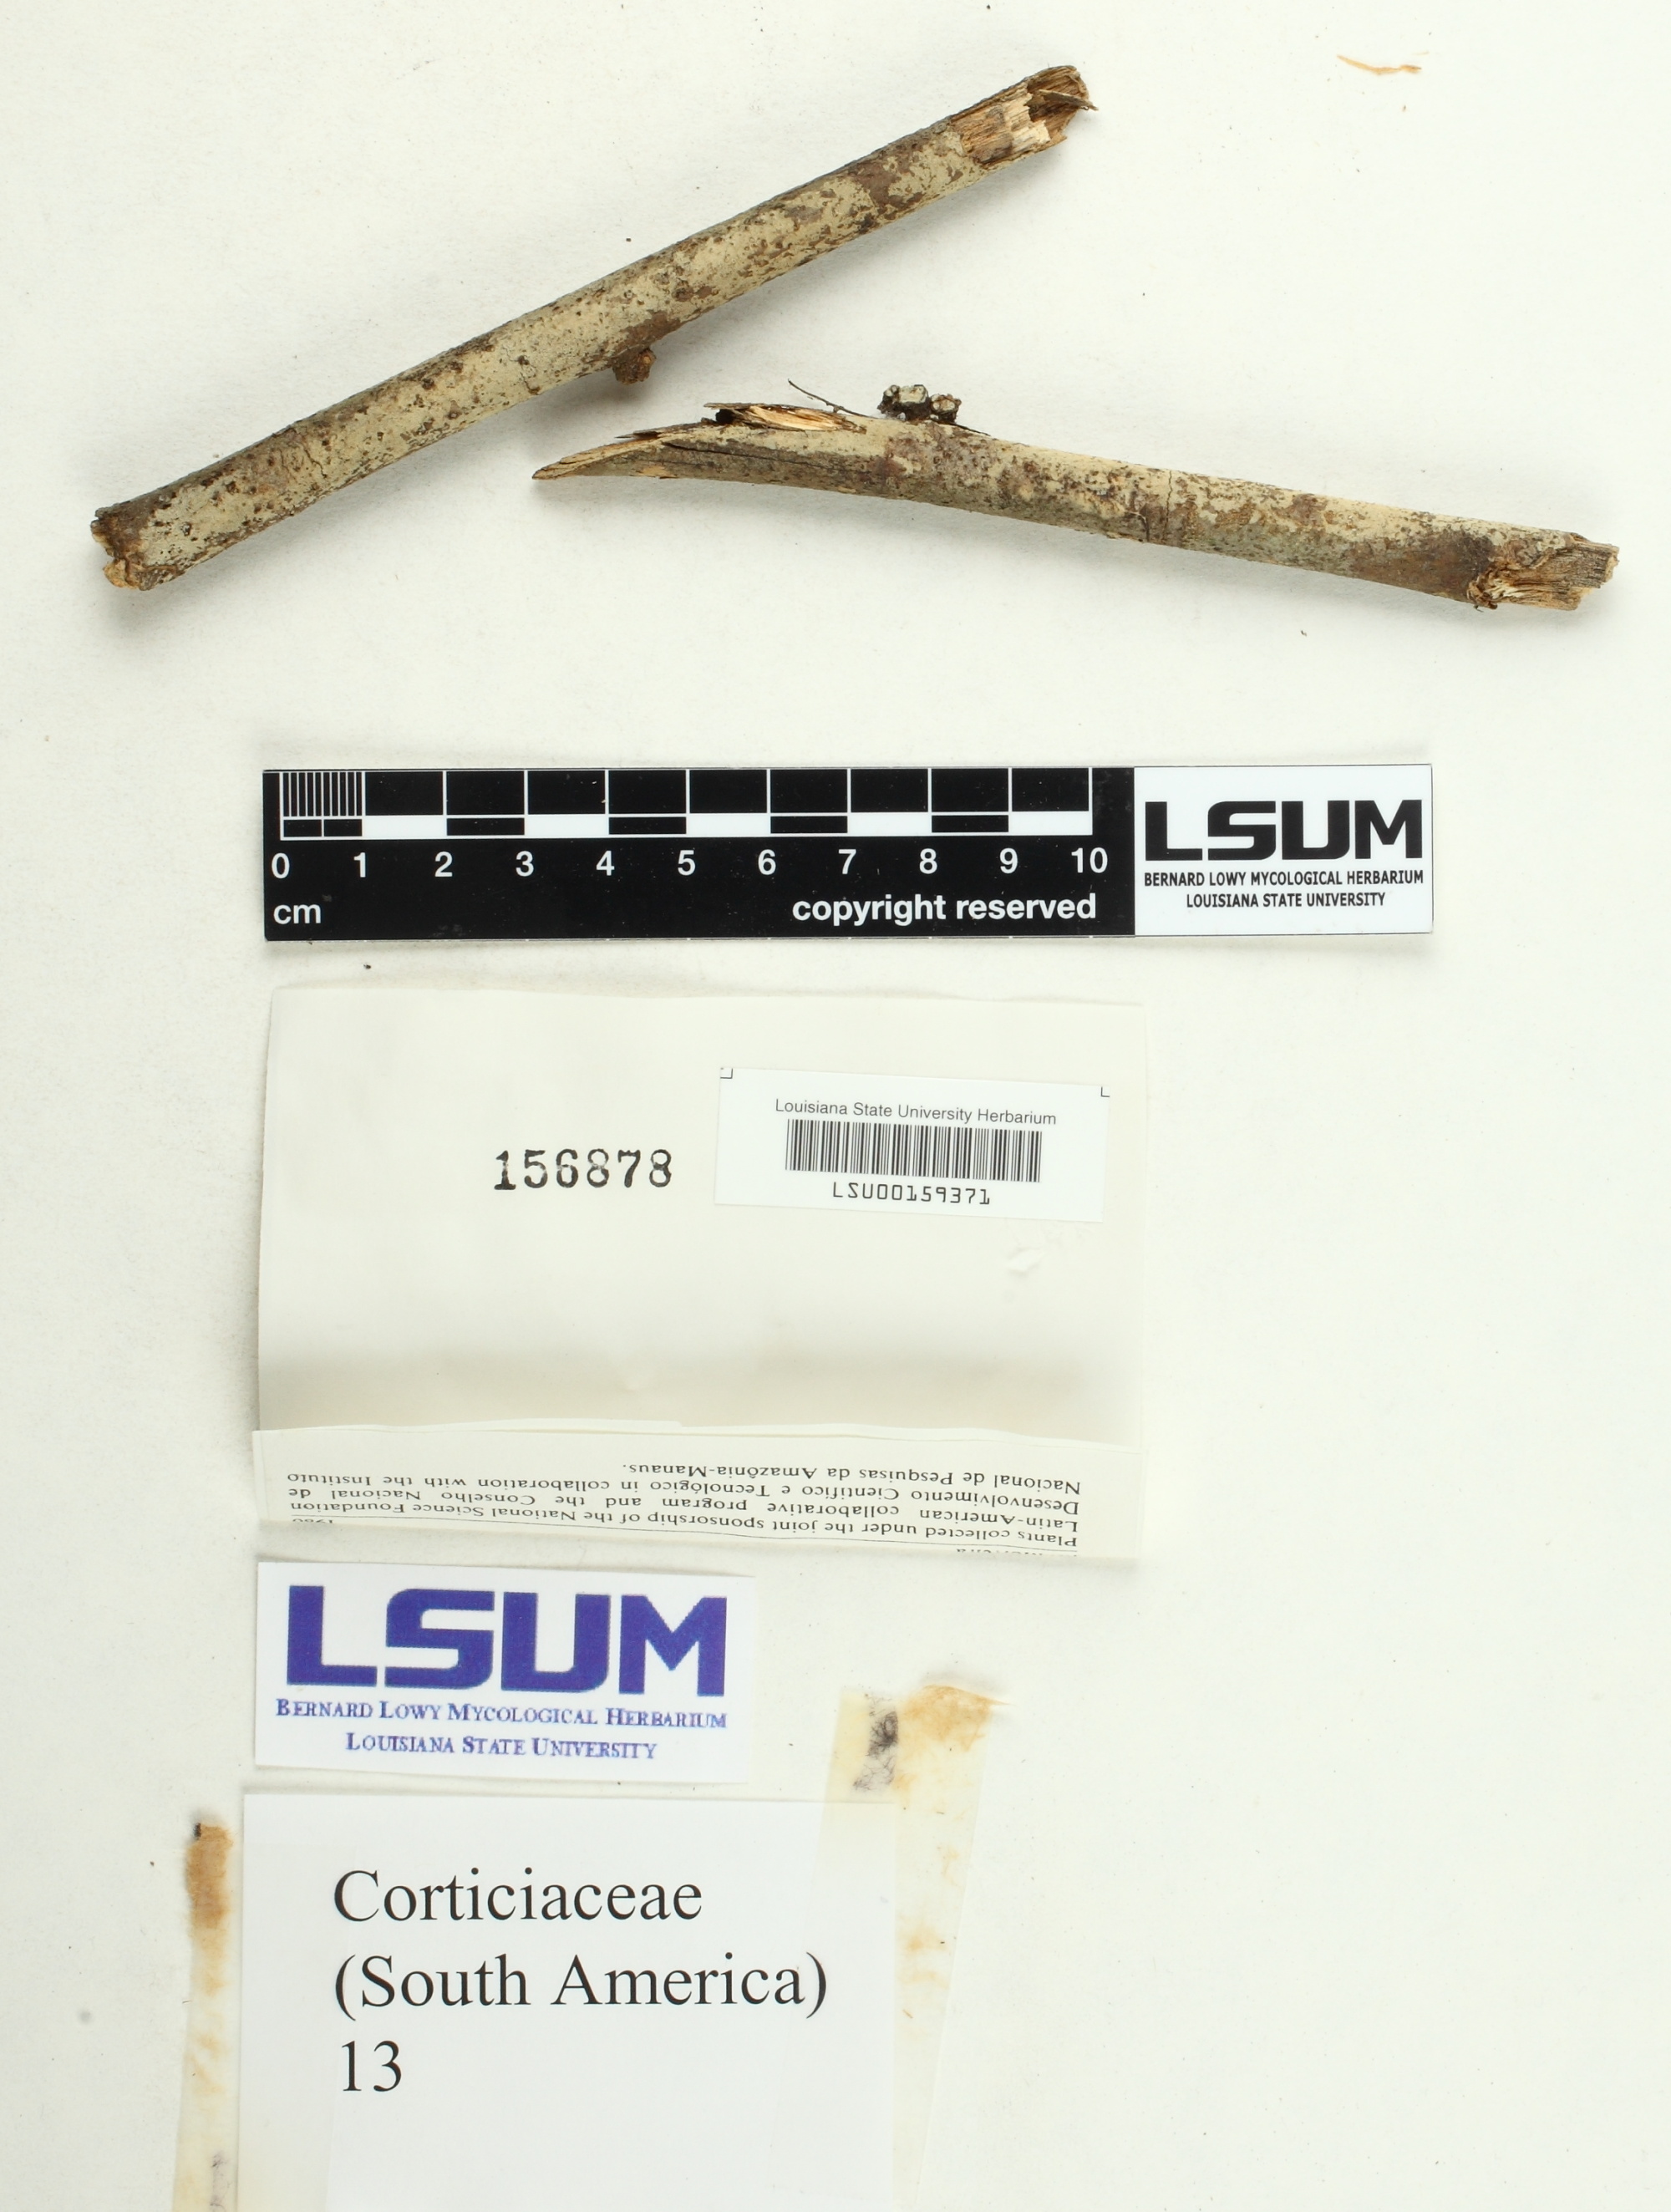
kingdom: Fungi
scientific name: Fungi
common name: Fungi
